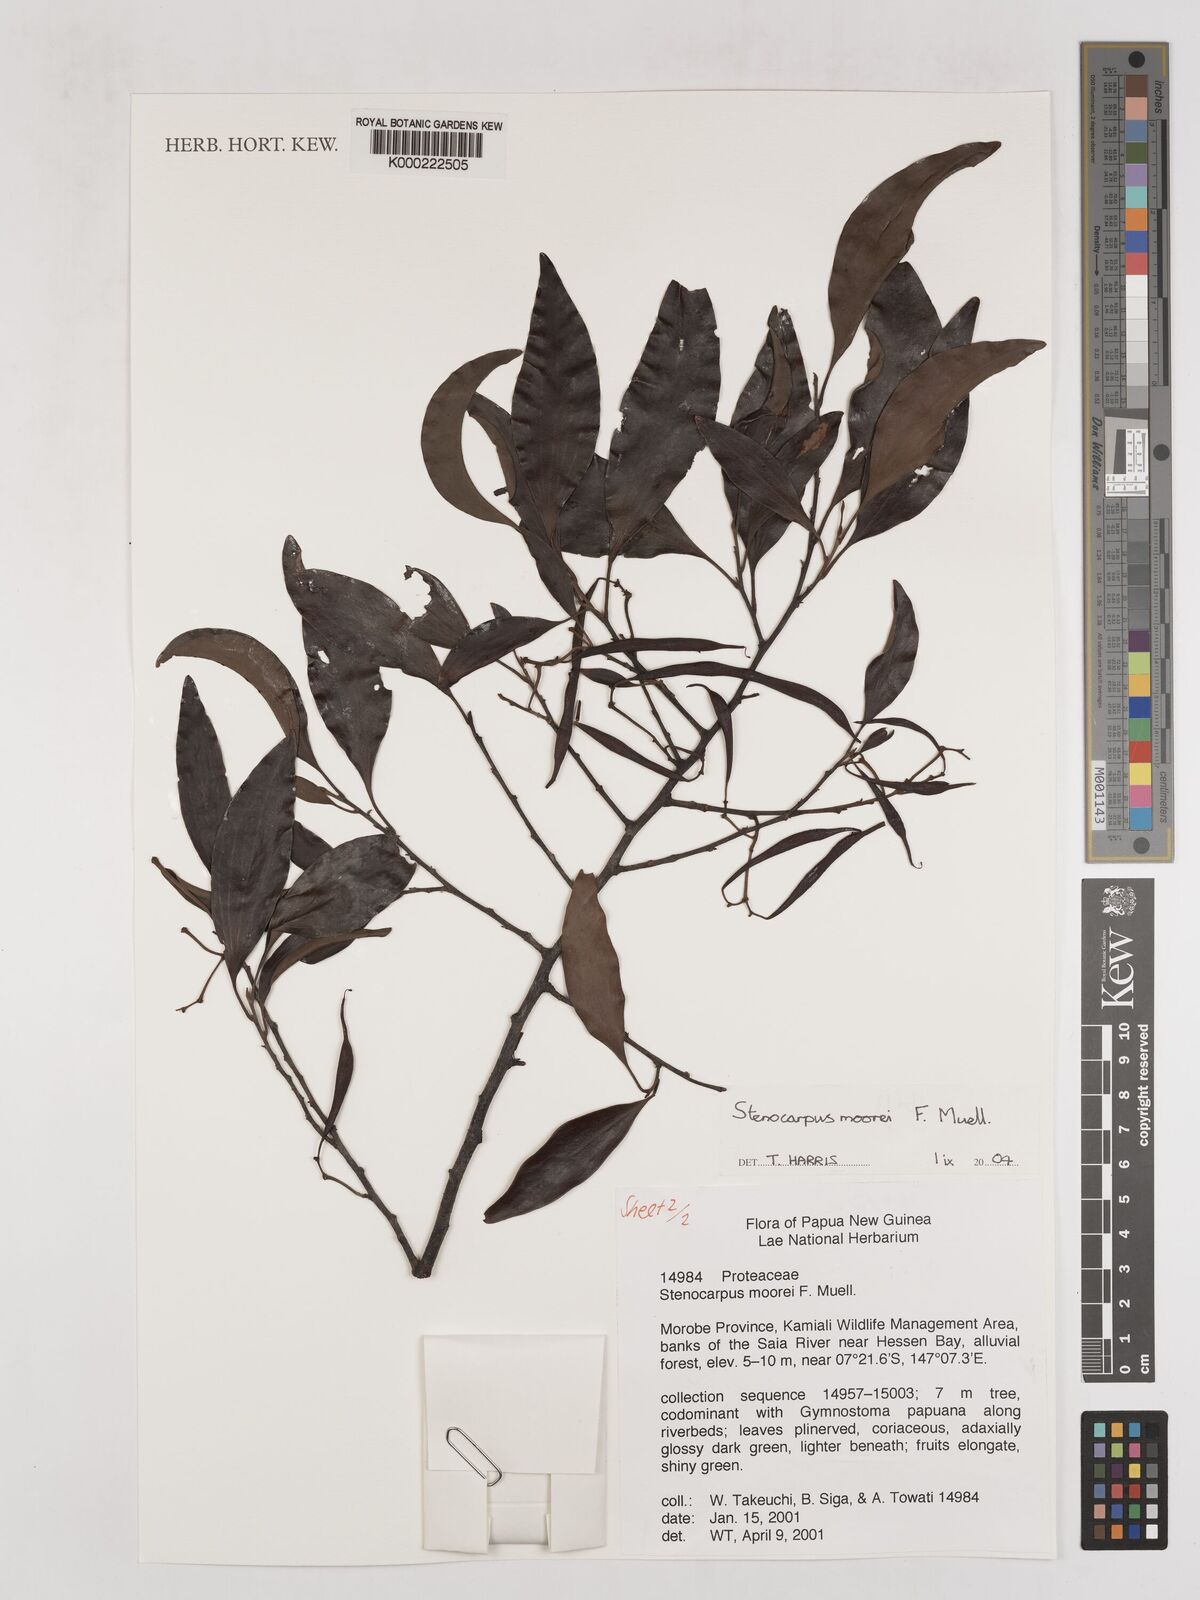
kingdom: Plantae
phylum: Tracheophyta
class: Magnoliopsida
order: Proteales
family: Proteaceae
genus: Stenocarpus
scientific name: Stenocarpus moorei
